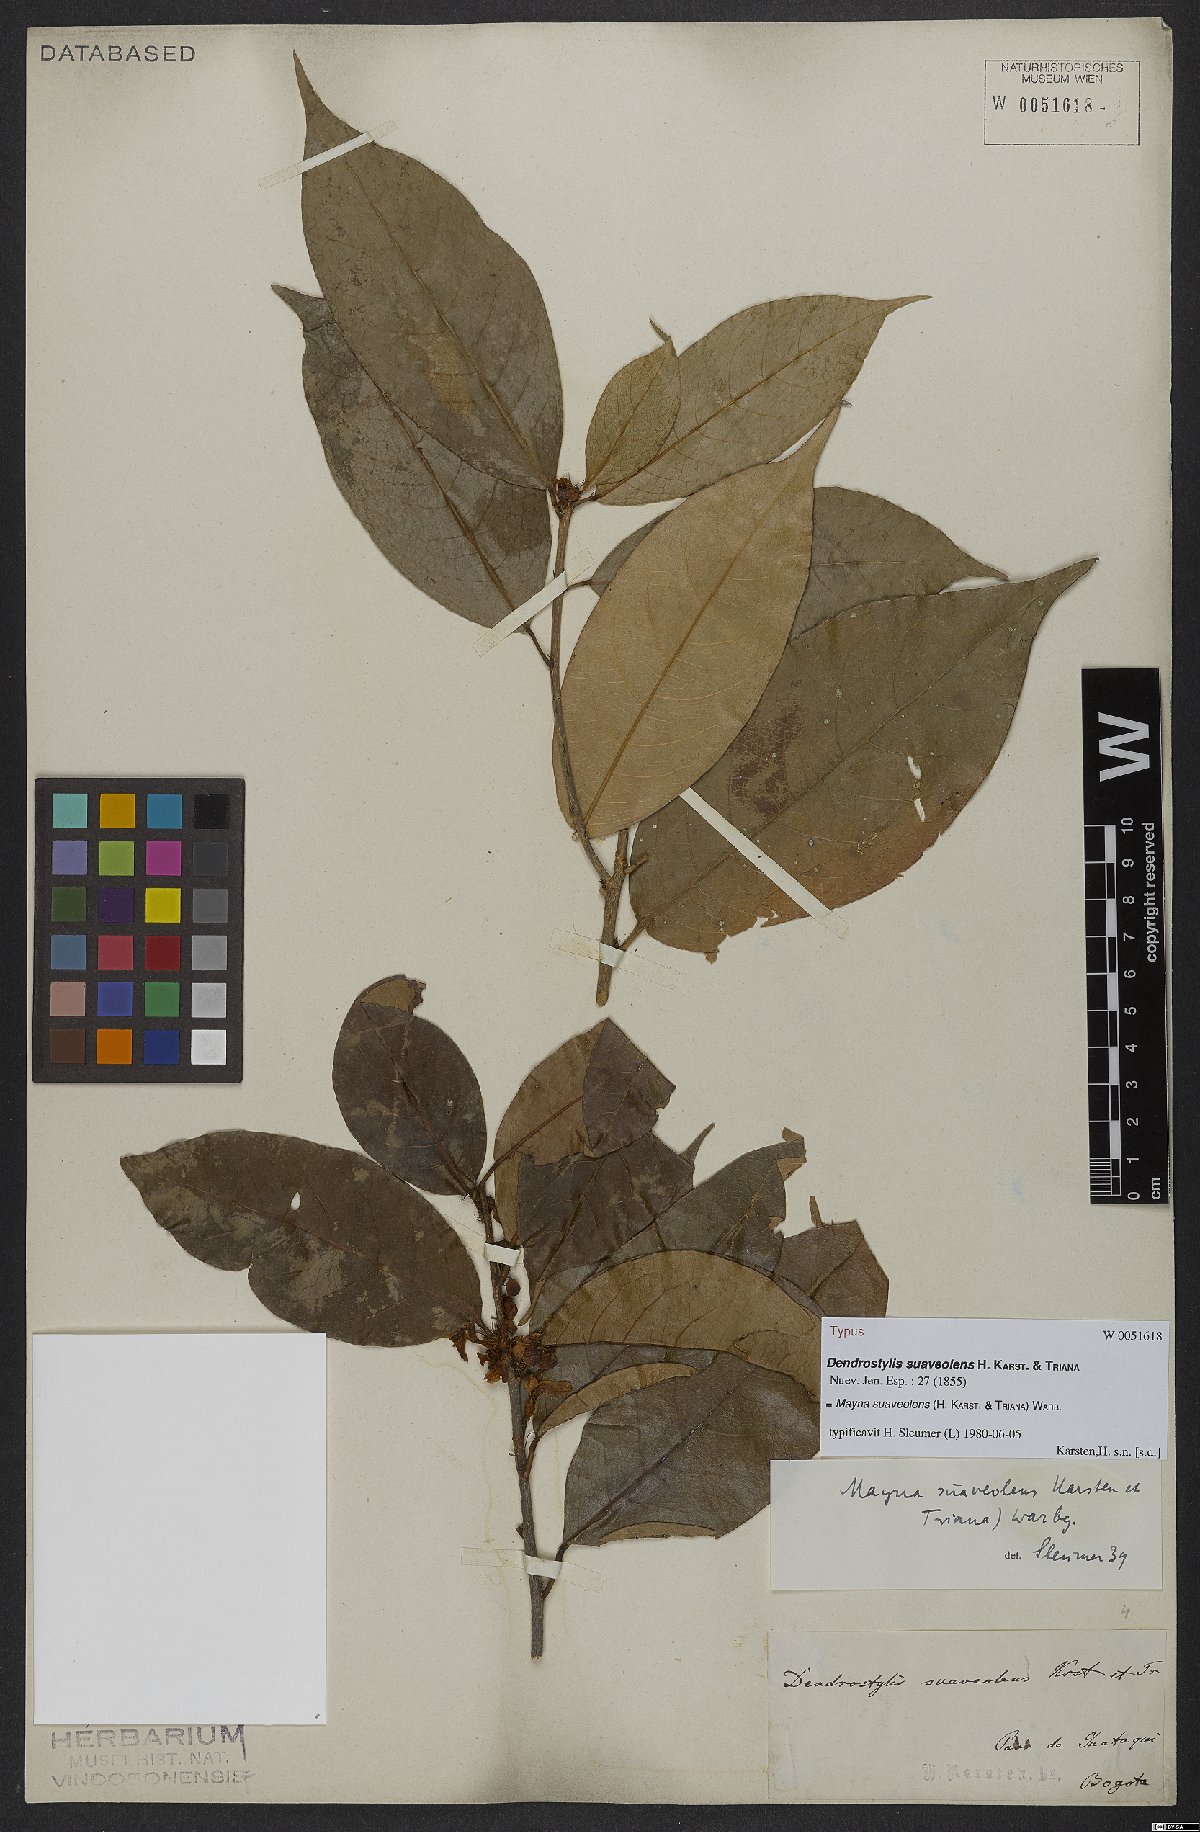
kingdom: Plantae
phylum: Tracheophyta
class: Magnoliopsida
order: Malpighiales
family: Achariaceae
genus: Mayna
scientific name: Mayna suaveolens
